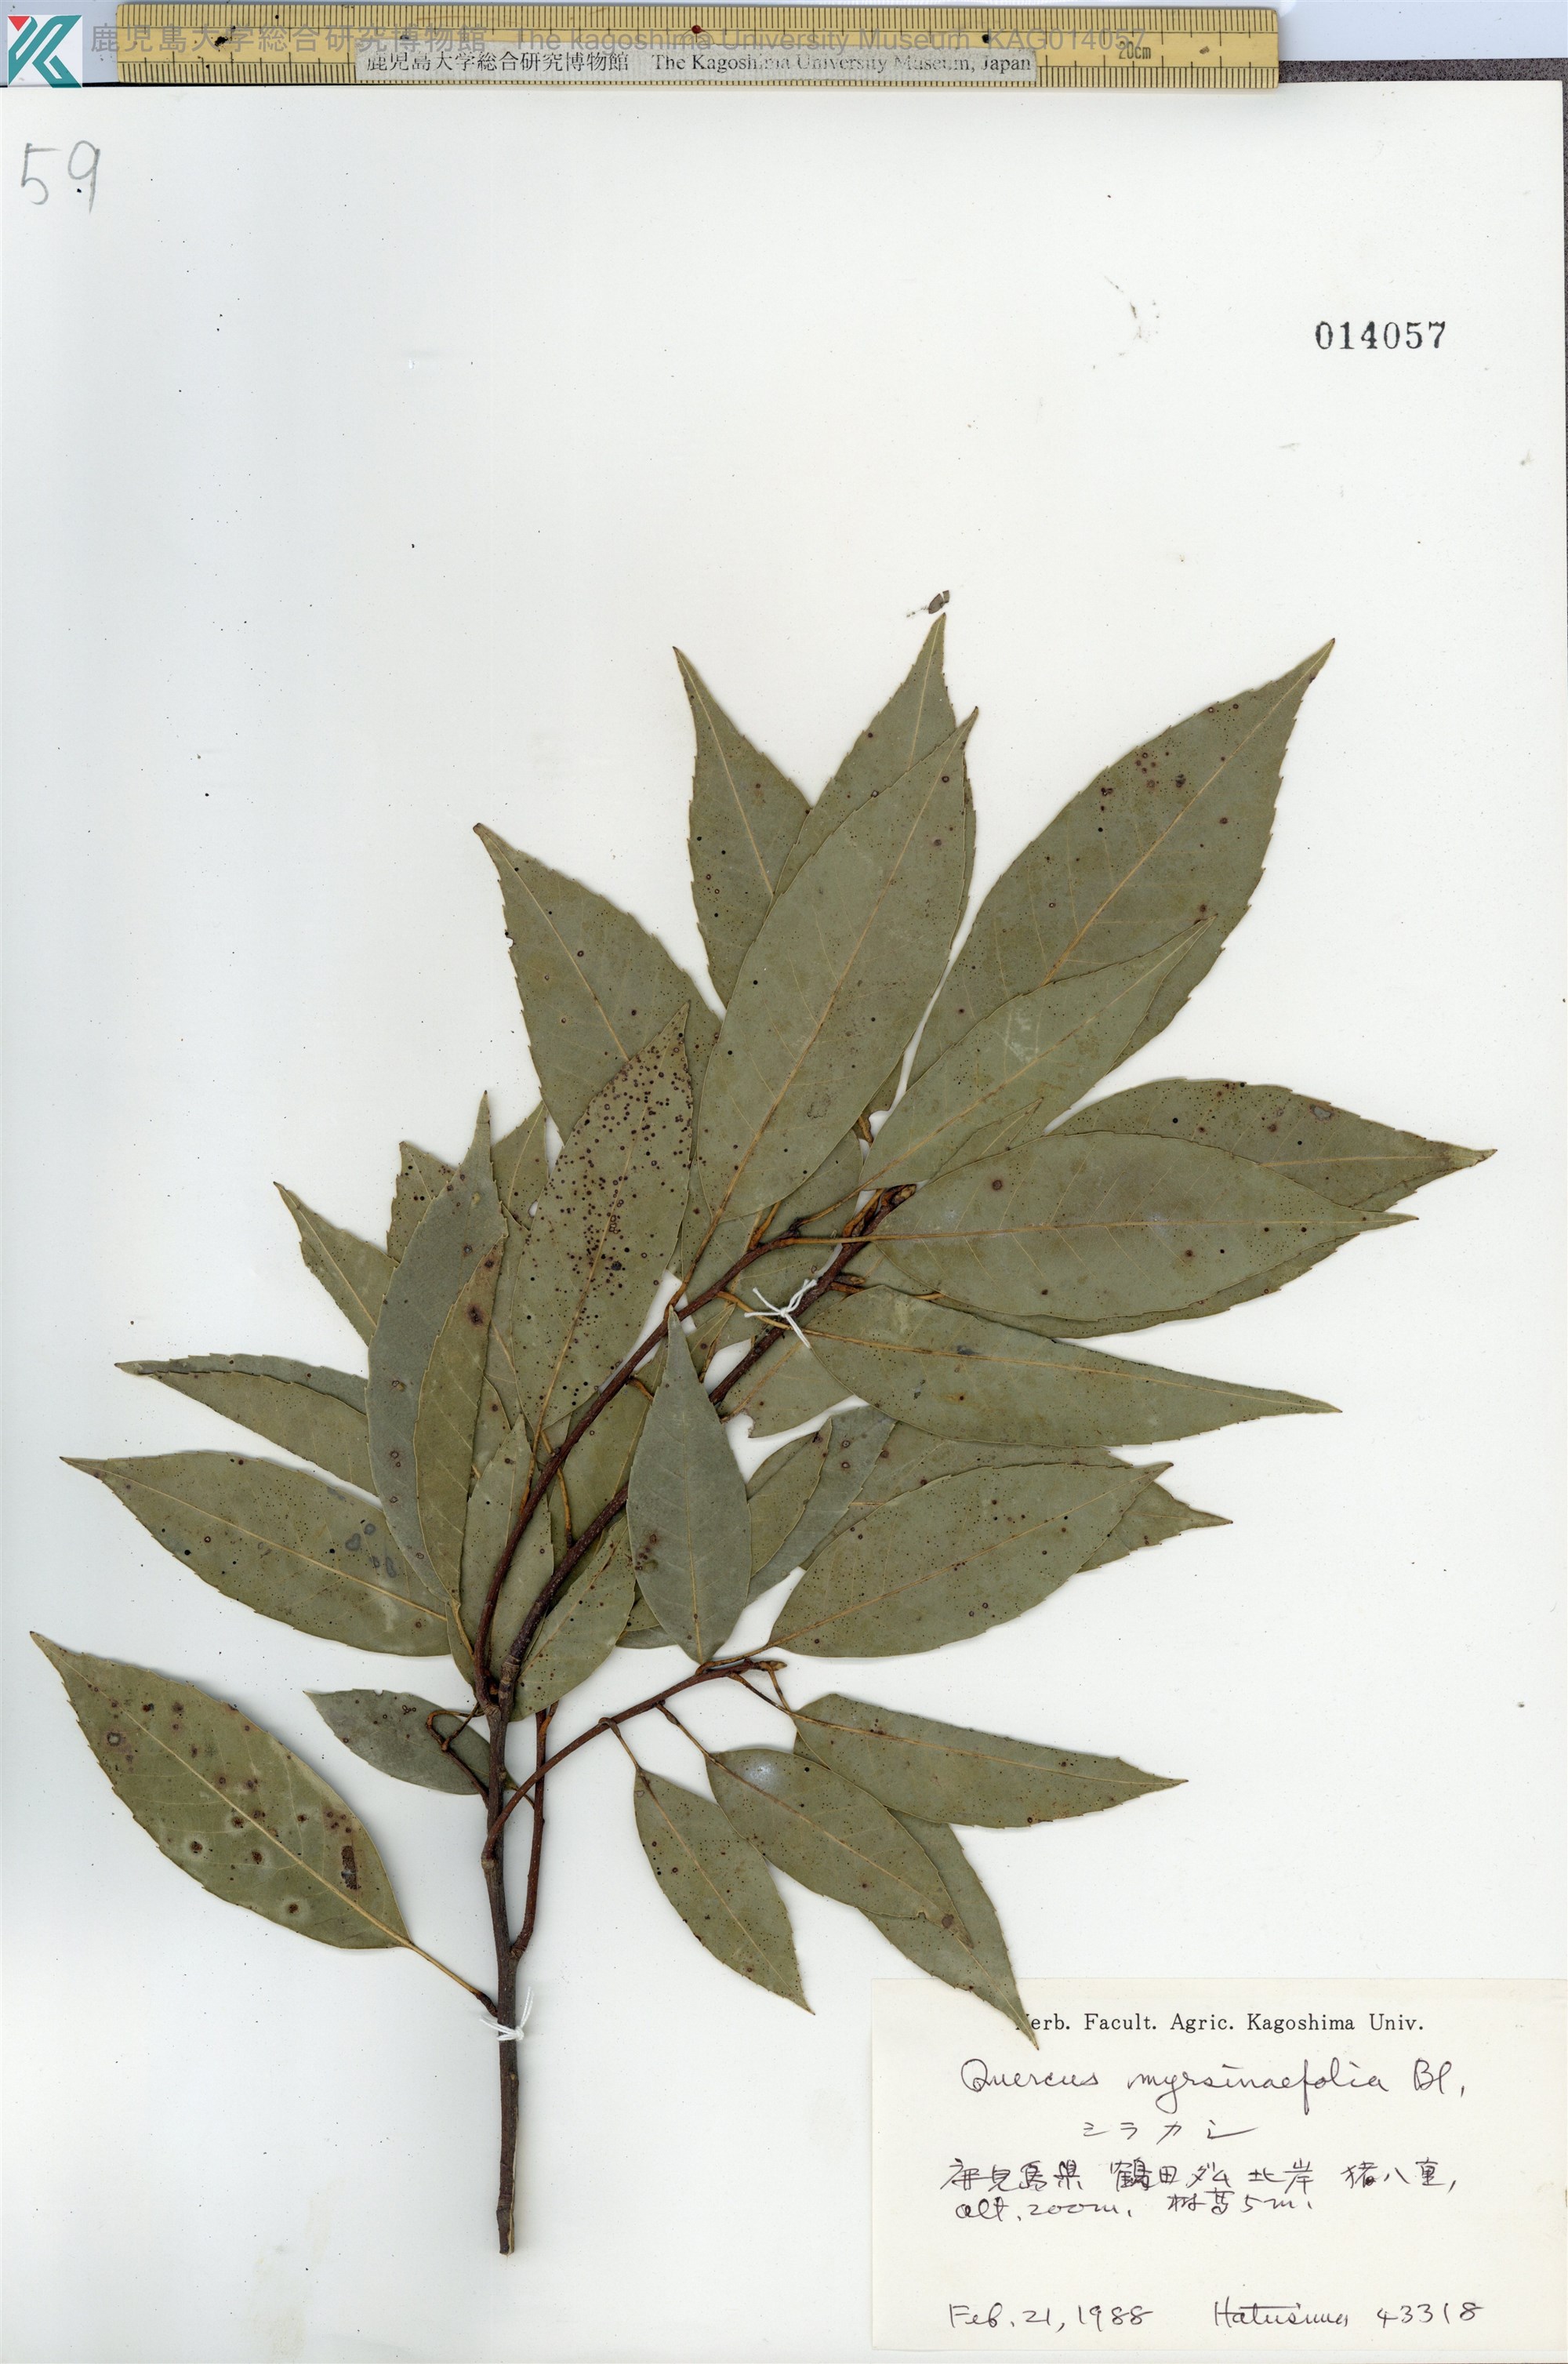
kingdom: Plantae
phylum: Tracheophyta
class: Magnoliopsida
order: Fagales
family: Fagaceae
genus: Quercus
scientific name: Quercus myrsinaefolia
